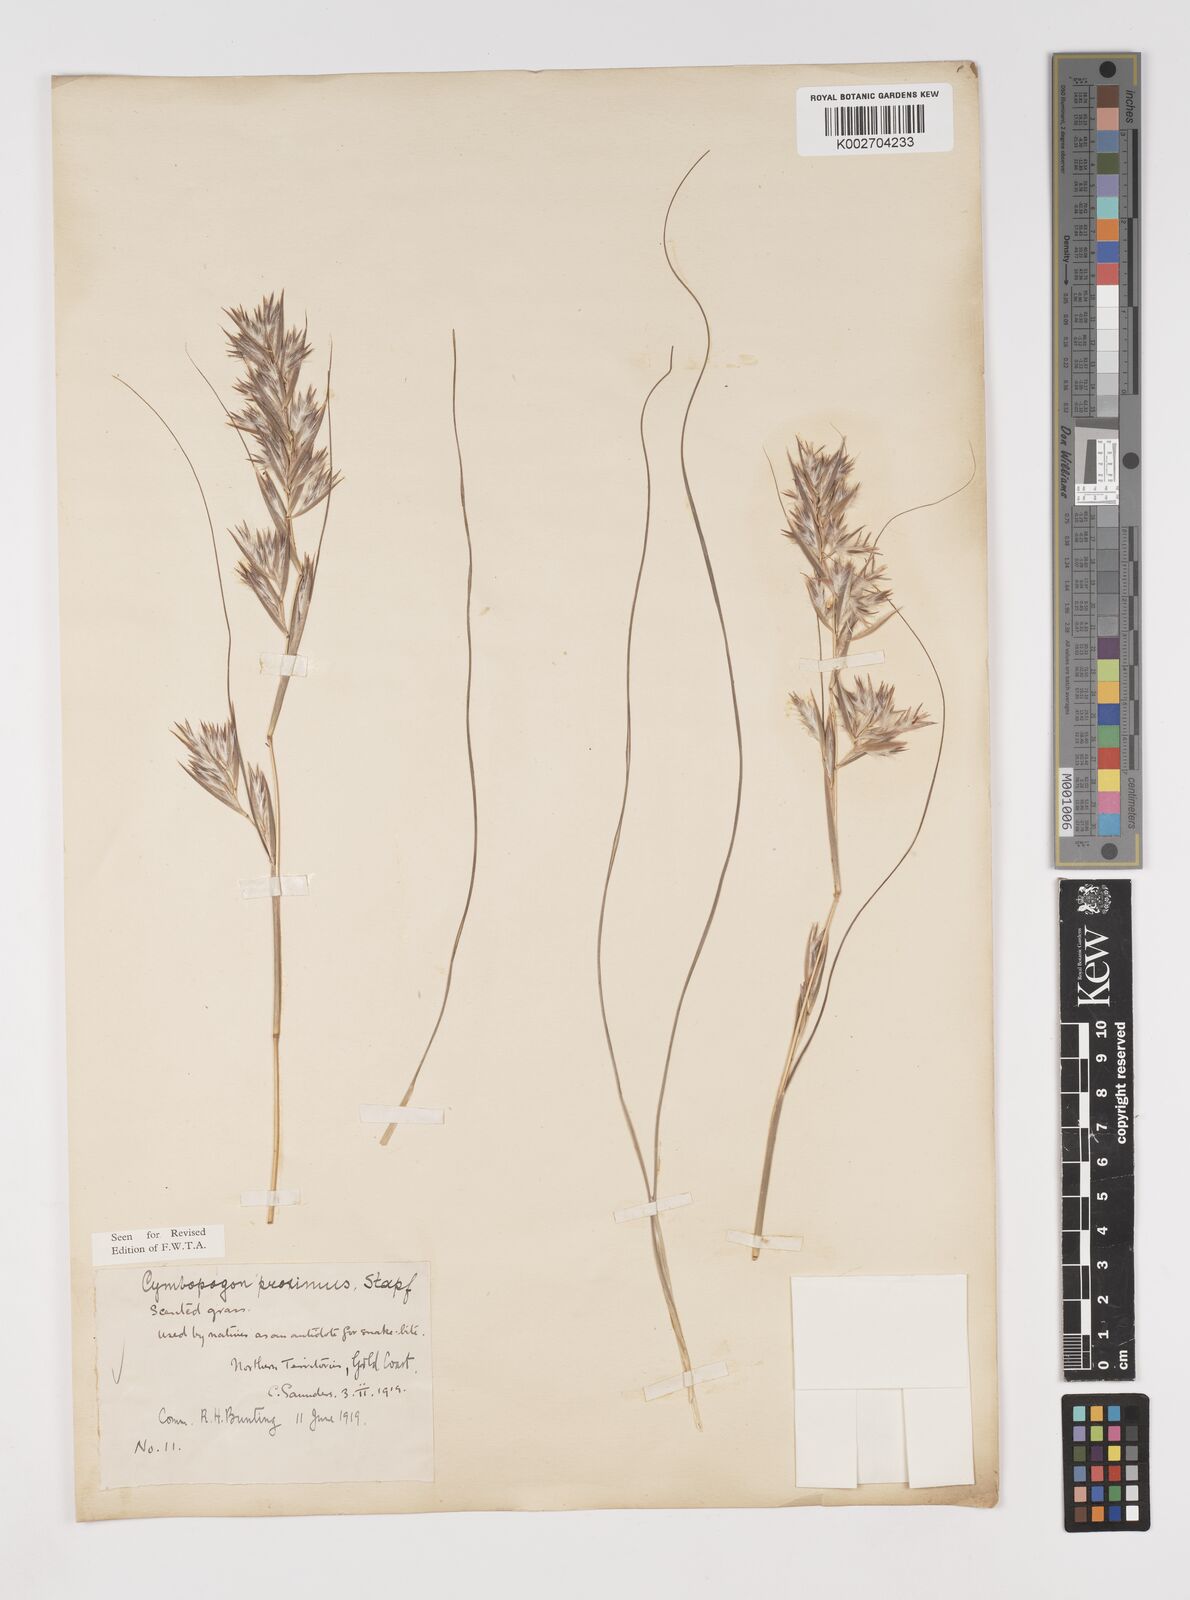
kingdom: Plantae
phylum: Tracheophyta
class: Liliopsida
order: Poales
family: Poaceae
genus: Cymbopogon
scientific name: Cymbopogon schoenanthus
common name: Geranium grass
